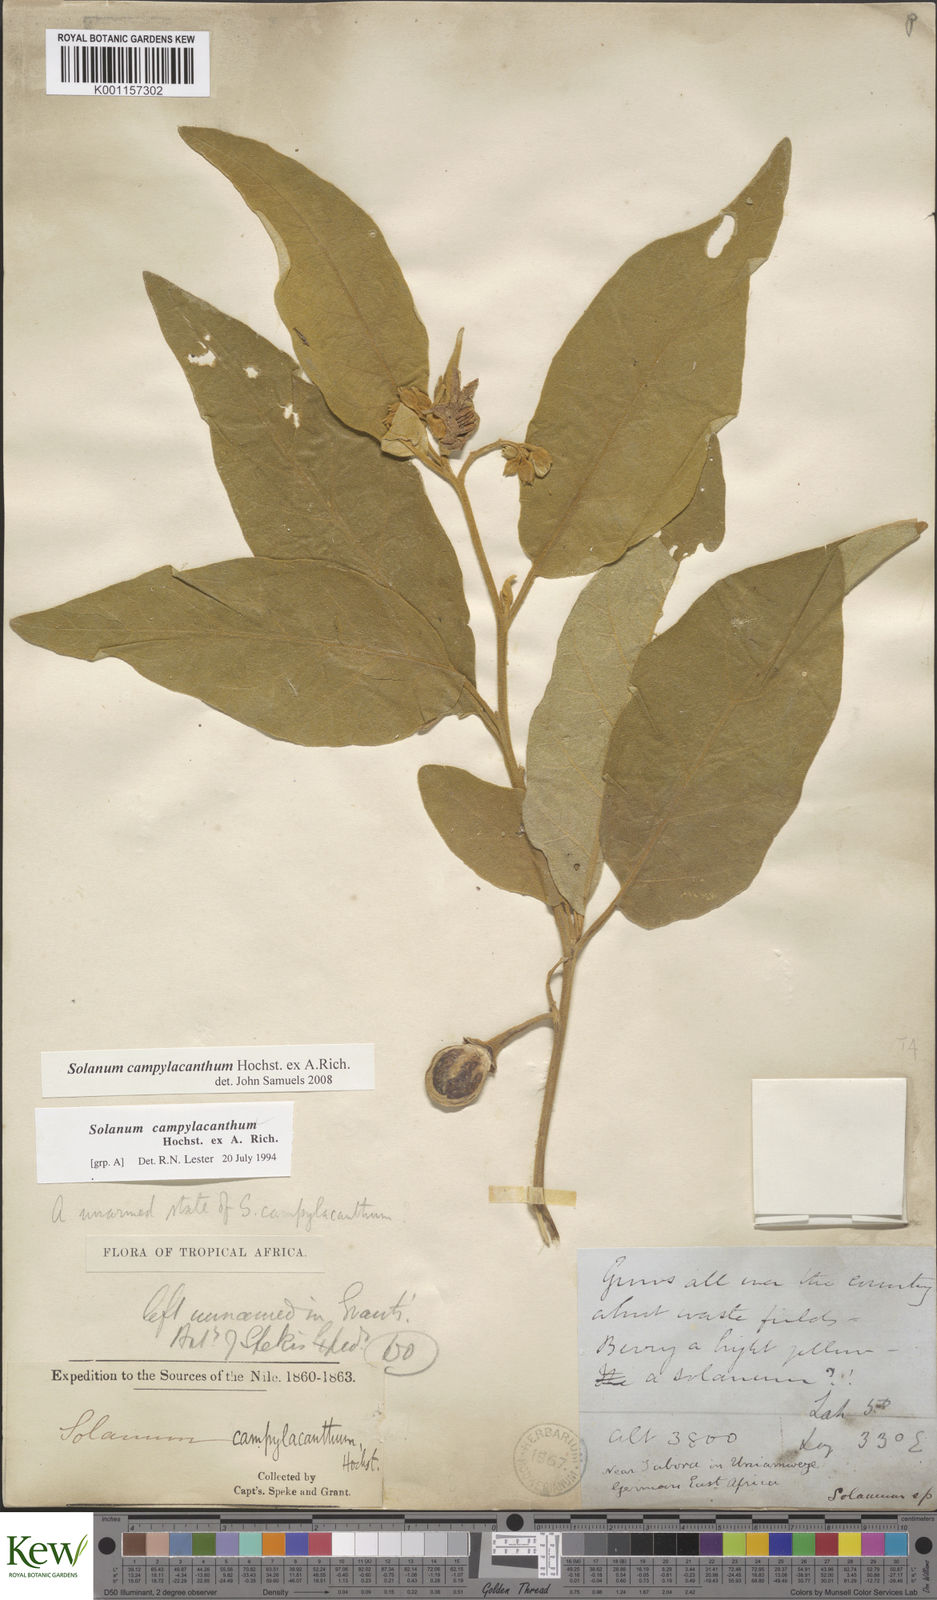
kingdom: Plantae
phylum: Tracheophyta
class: Magnoliopsida
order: Solanales
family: Solanaceae
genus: Solanum
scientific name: Solanum campylacanthum
